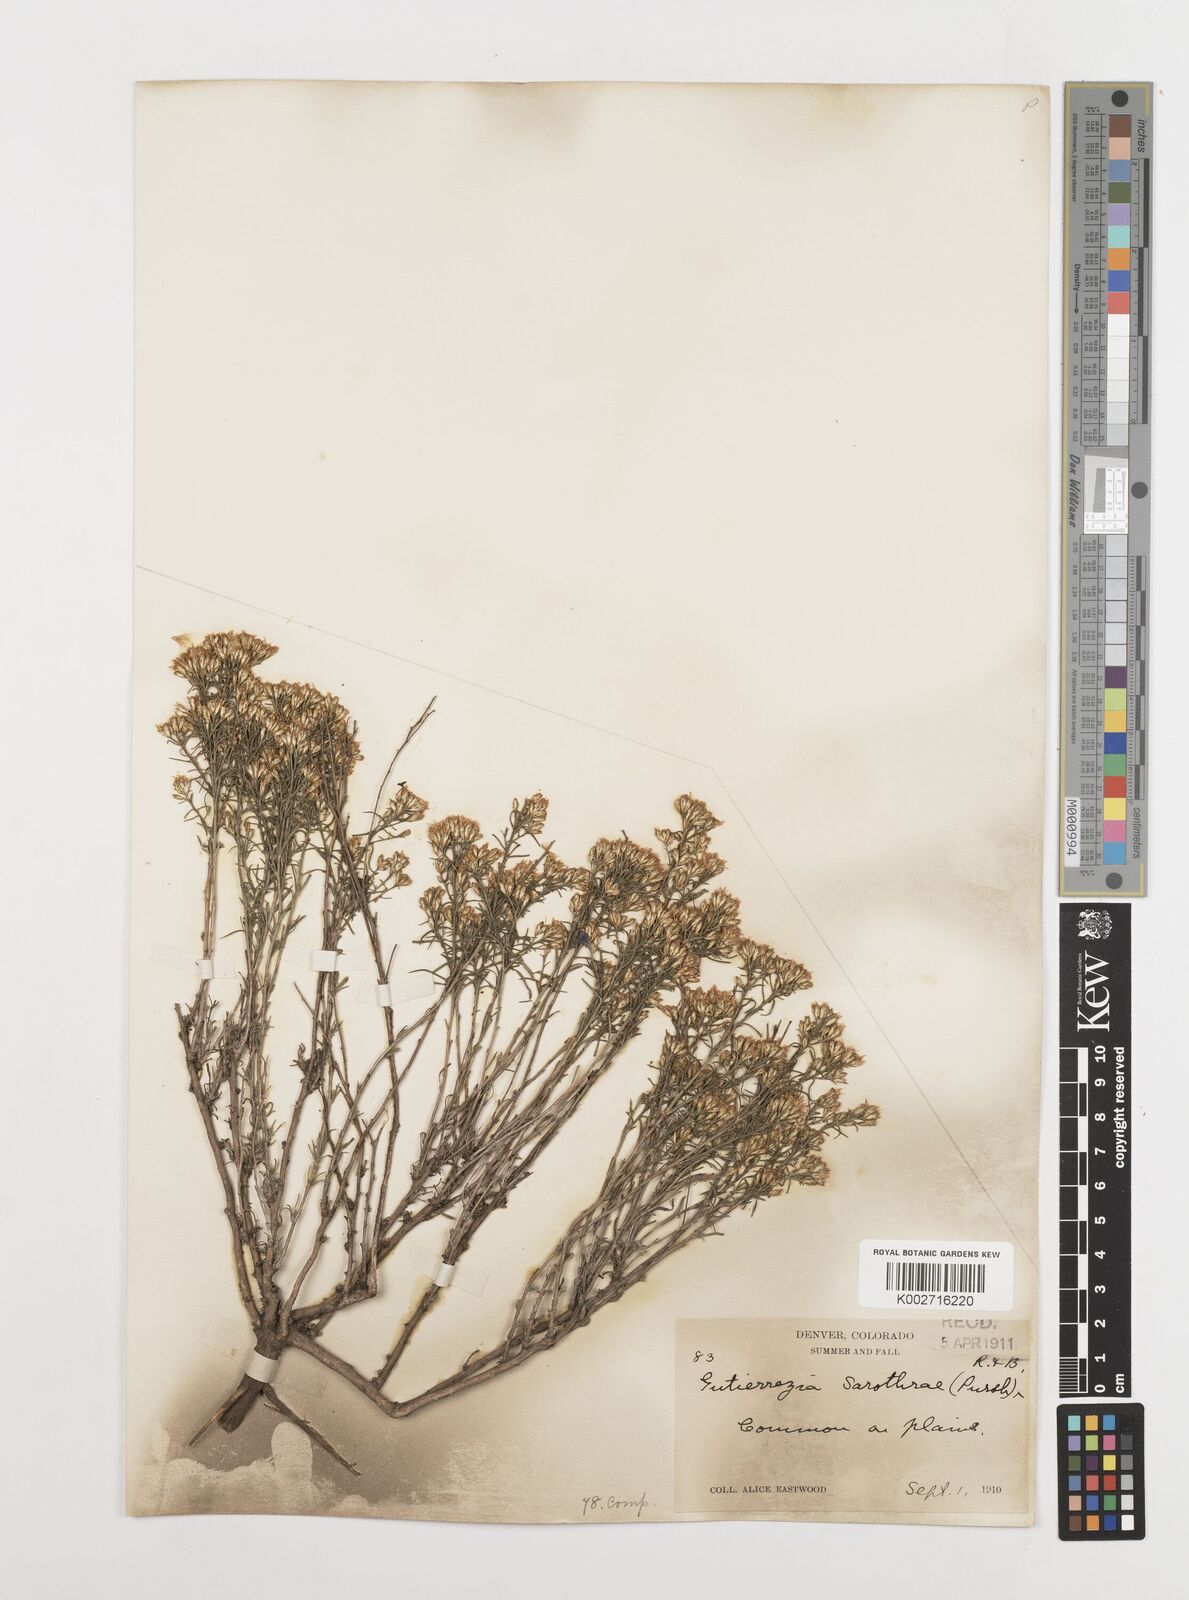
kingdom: Plantae
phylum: Tracheophyta
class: Magnoliopsida
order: Asterales
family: Asteraceae
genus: Gutierrezia
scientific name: Gutierrezia sarothrae
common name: Broom snakeweed
